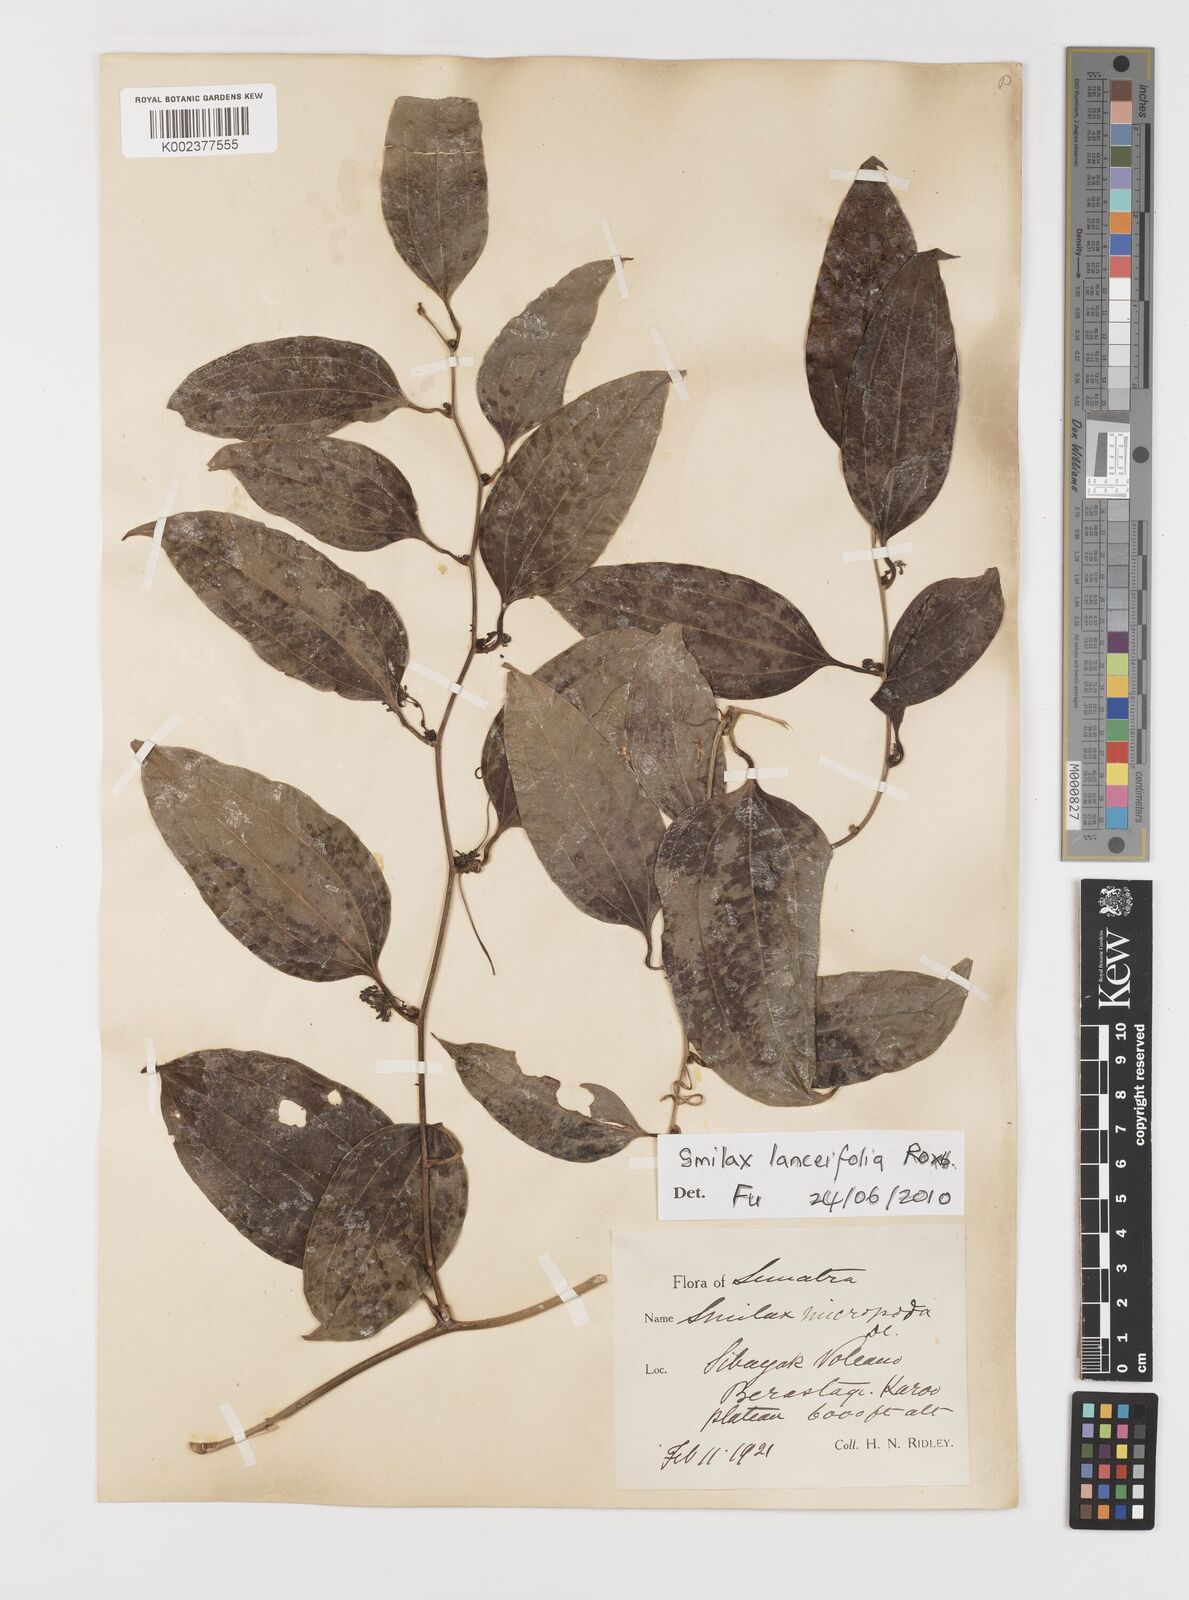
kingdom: Plantae
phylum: Tracheophyta
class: Liliopsida
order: Liliales
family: Smilacaceae
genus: Smilax
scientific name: Smilax lanceifolia
